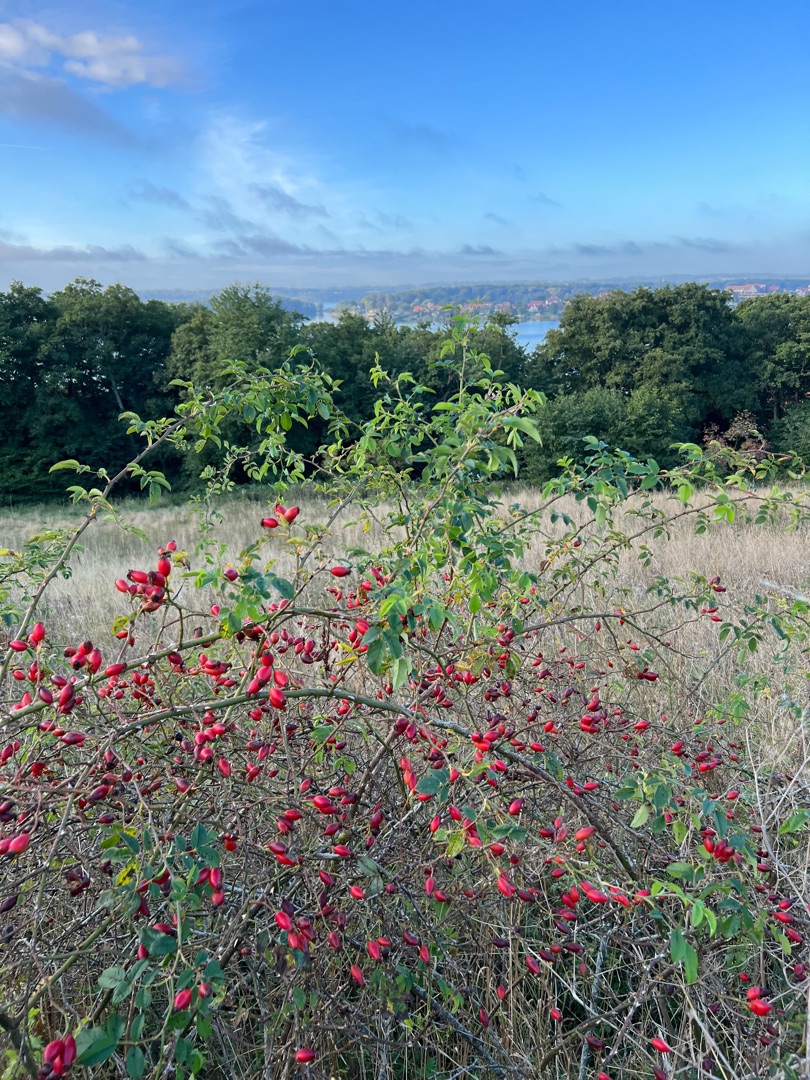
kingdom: Plantae
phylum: Tracheophyta
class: Magnoliopsida
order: Rosales
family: Rosaceae
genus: Rosa
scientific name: Rosa canina
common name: Glat hunde-rose
